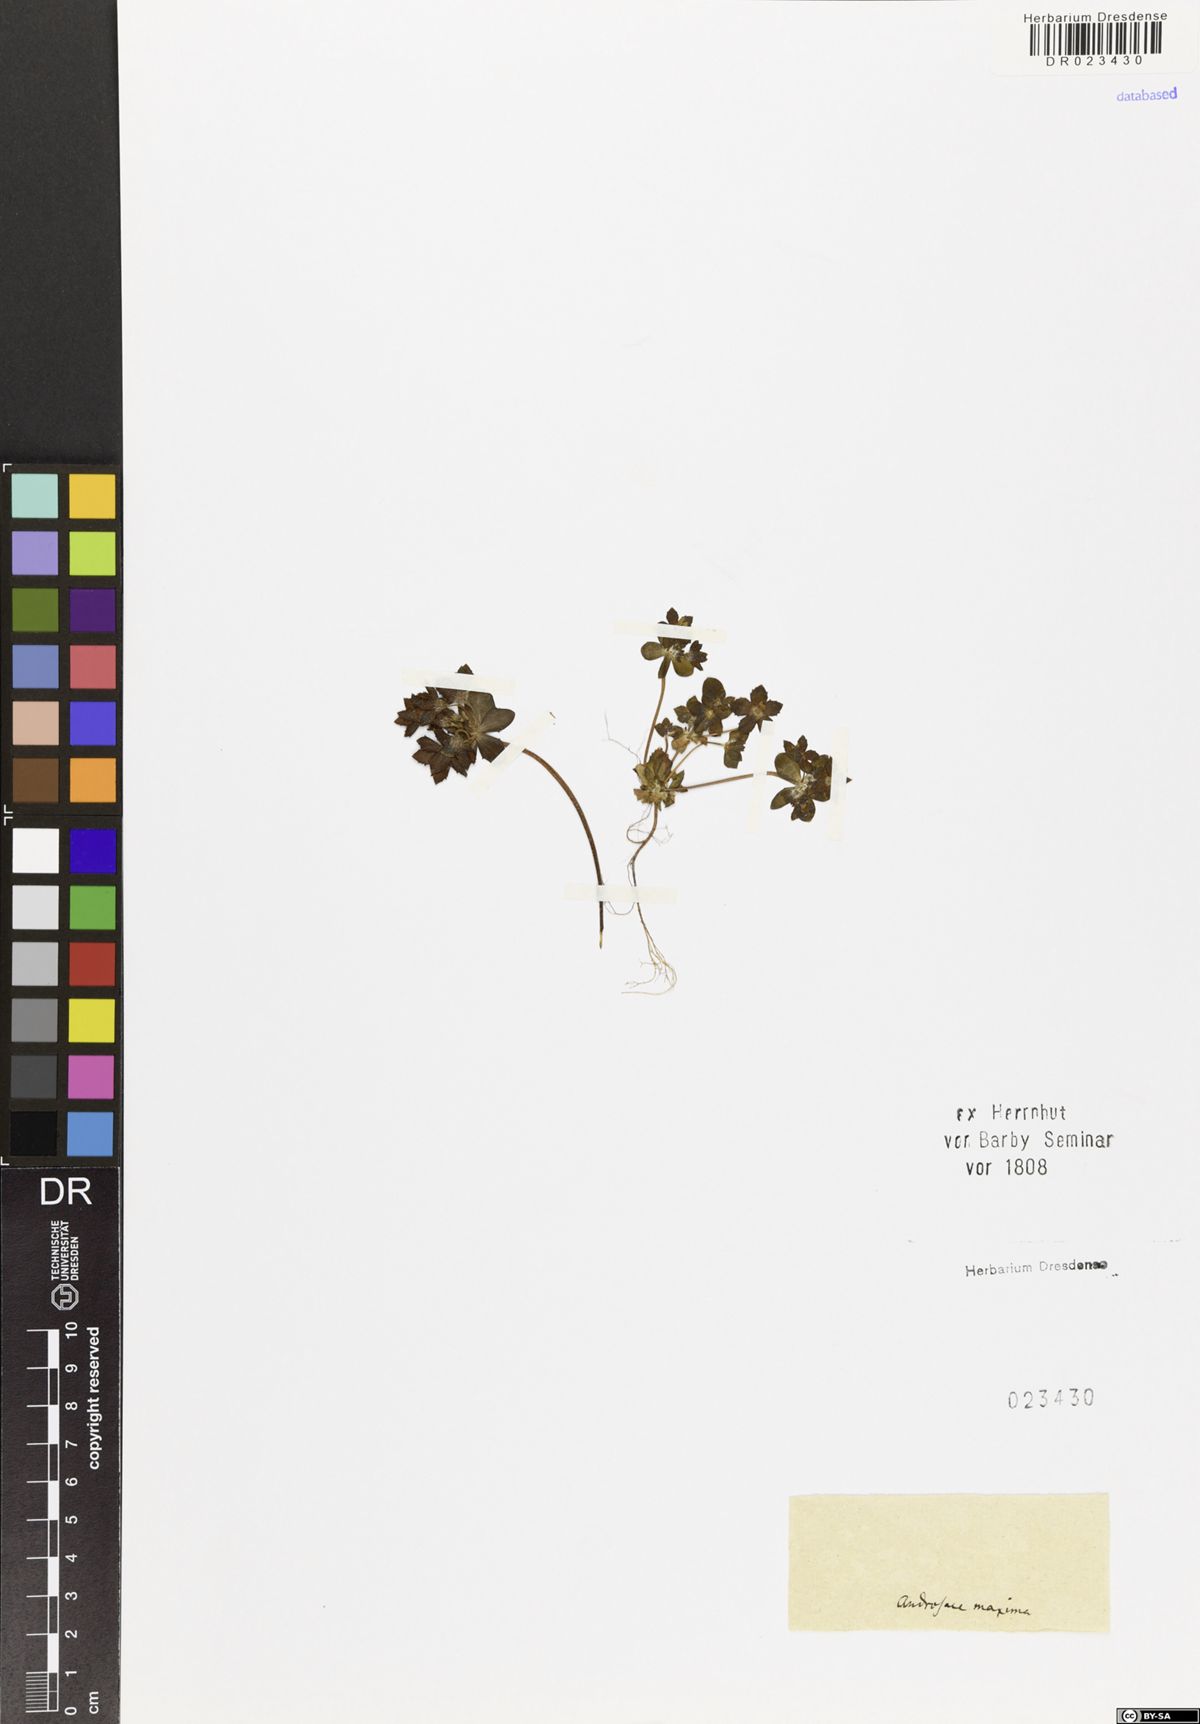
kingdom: Plantae
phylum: Tracheophyta
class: Magnoliopsida
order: Ericales
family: Primulaceae
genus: Androsace
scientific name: Androsace maxima
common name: Annual androsace
